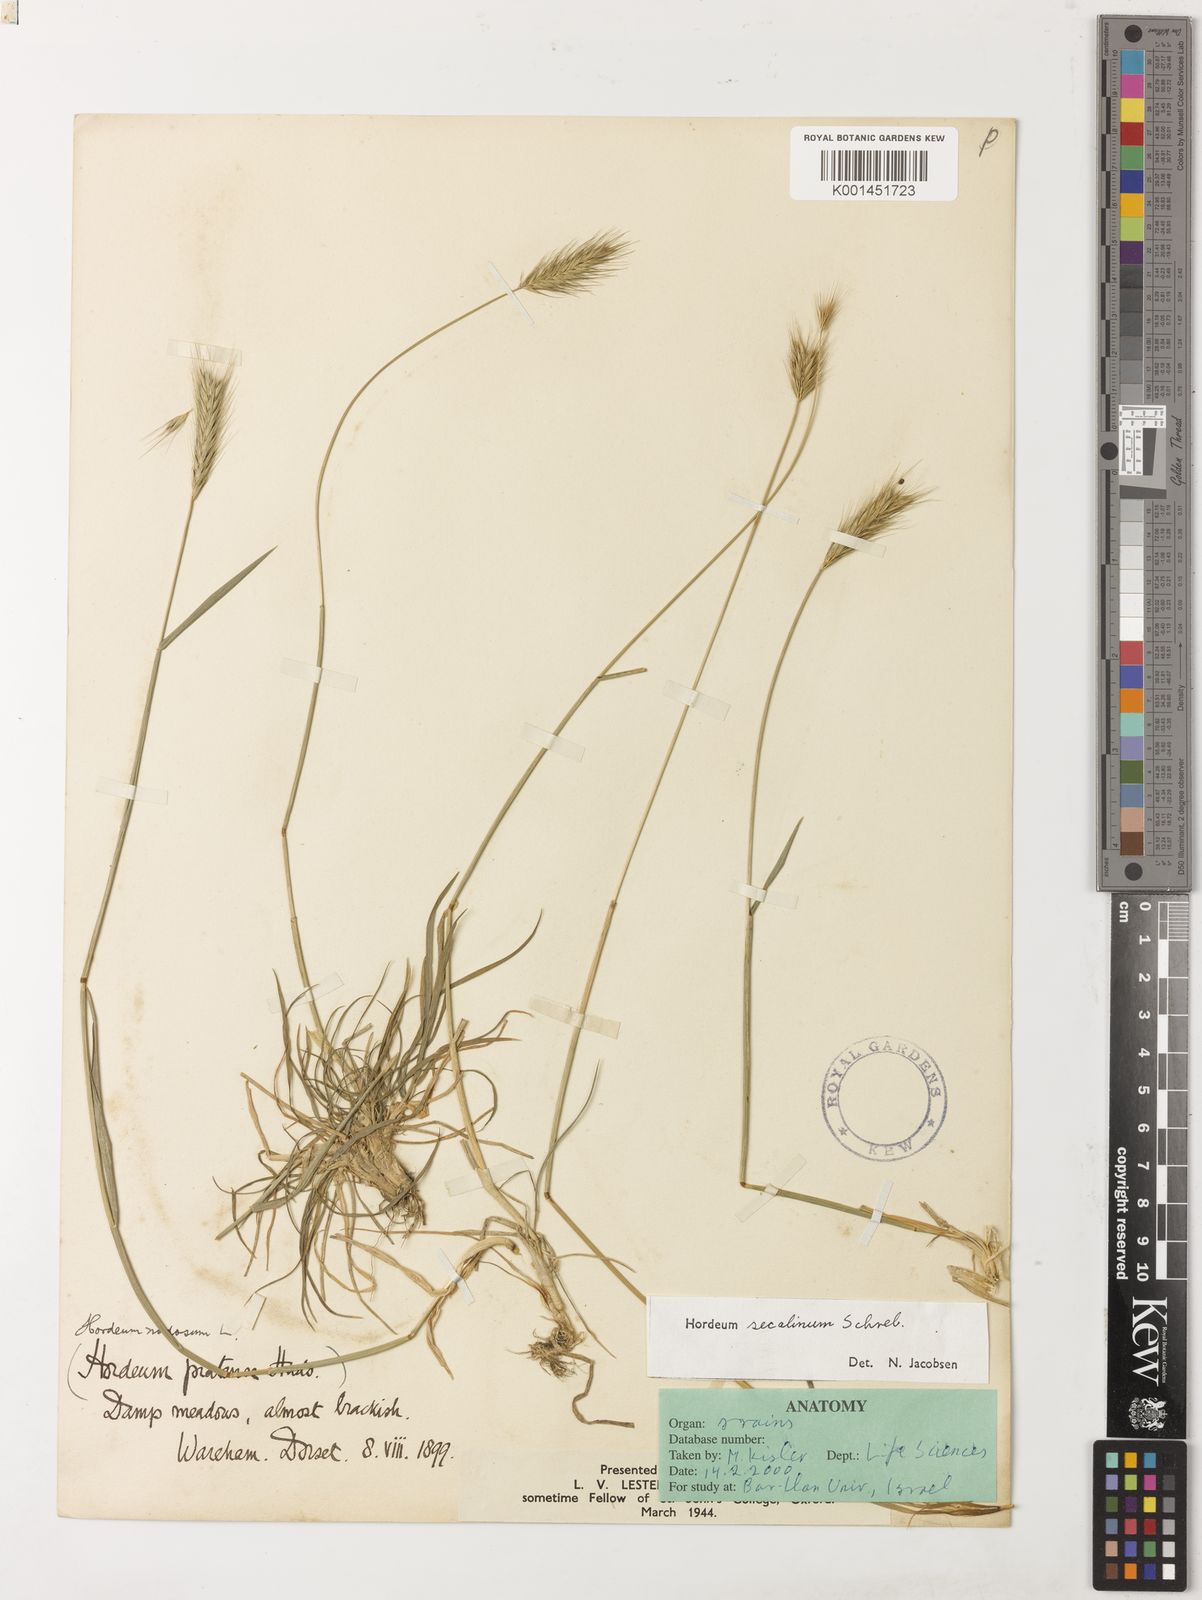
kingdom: Plantae
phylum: Tracheophyta
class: Liliopsida
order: Poales
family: Poaceae
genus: Hordeum
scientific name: Hordeum secalinum
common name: Meadow barley
